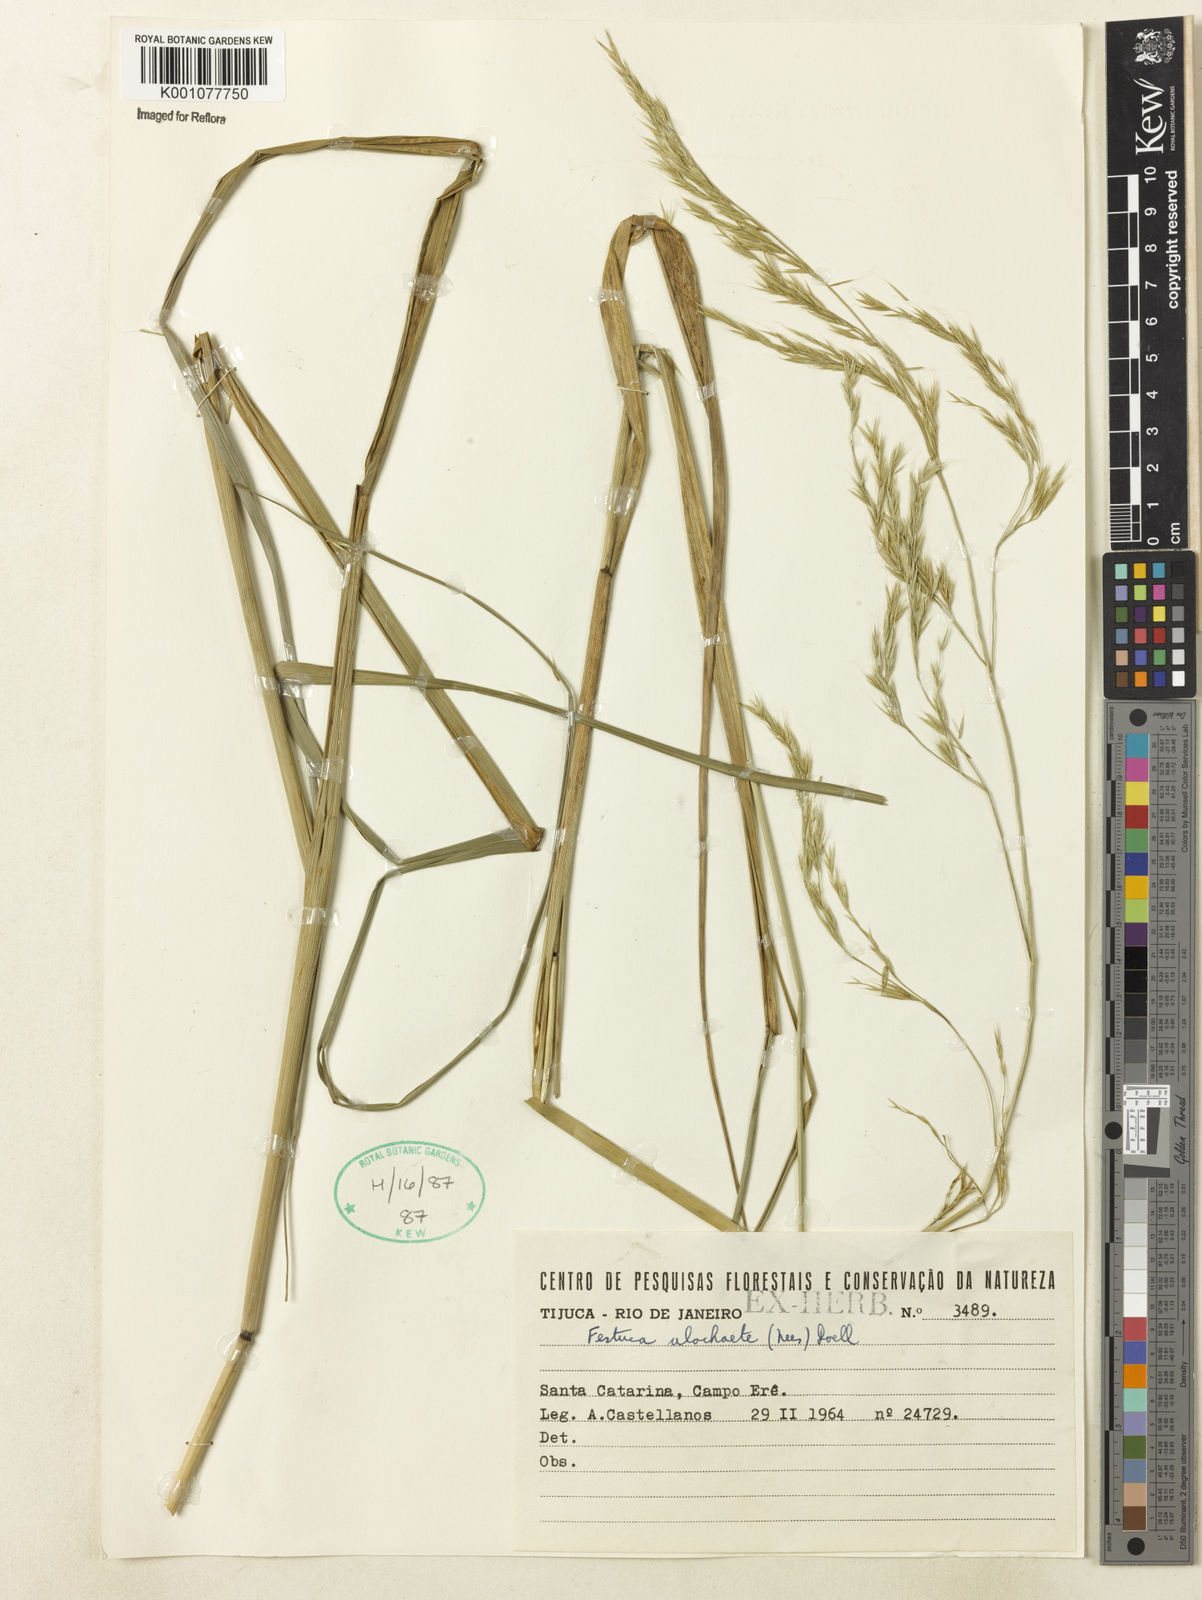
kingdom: Plantae
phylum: Tracheophyta
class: Liliopsida
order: Poales
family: Poaceae
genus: Festuca
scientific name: Festuca ulochaeta
